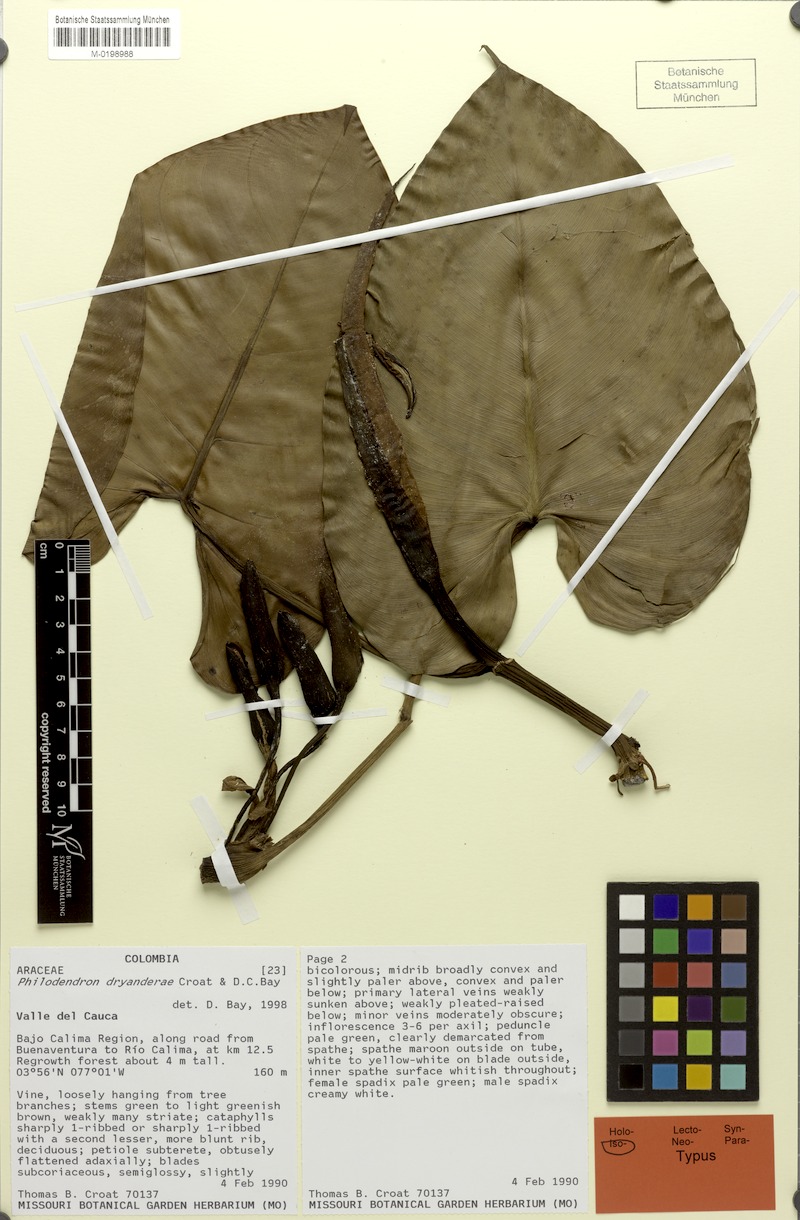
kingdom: Plantae
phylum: Tracheophyta
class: Liliopsida
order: Alismatales
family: Araceae
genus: Philodendron
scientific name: Philodendron dryanderae
